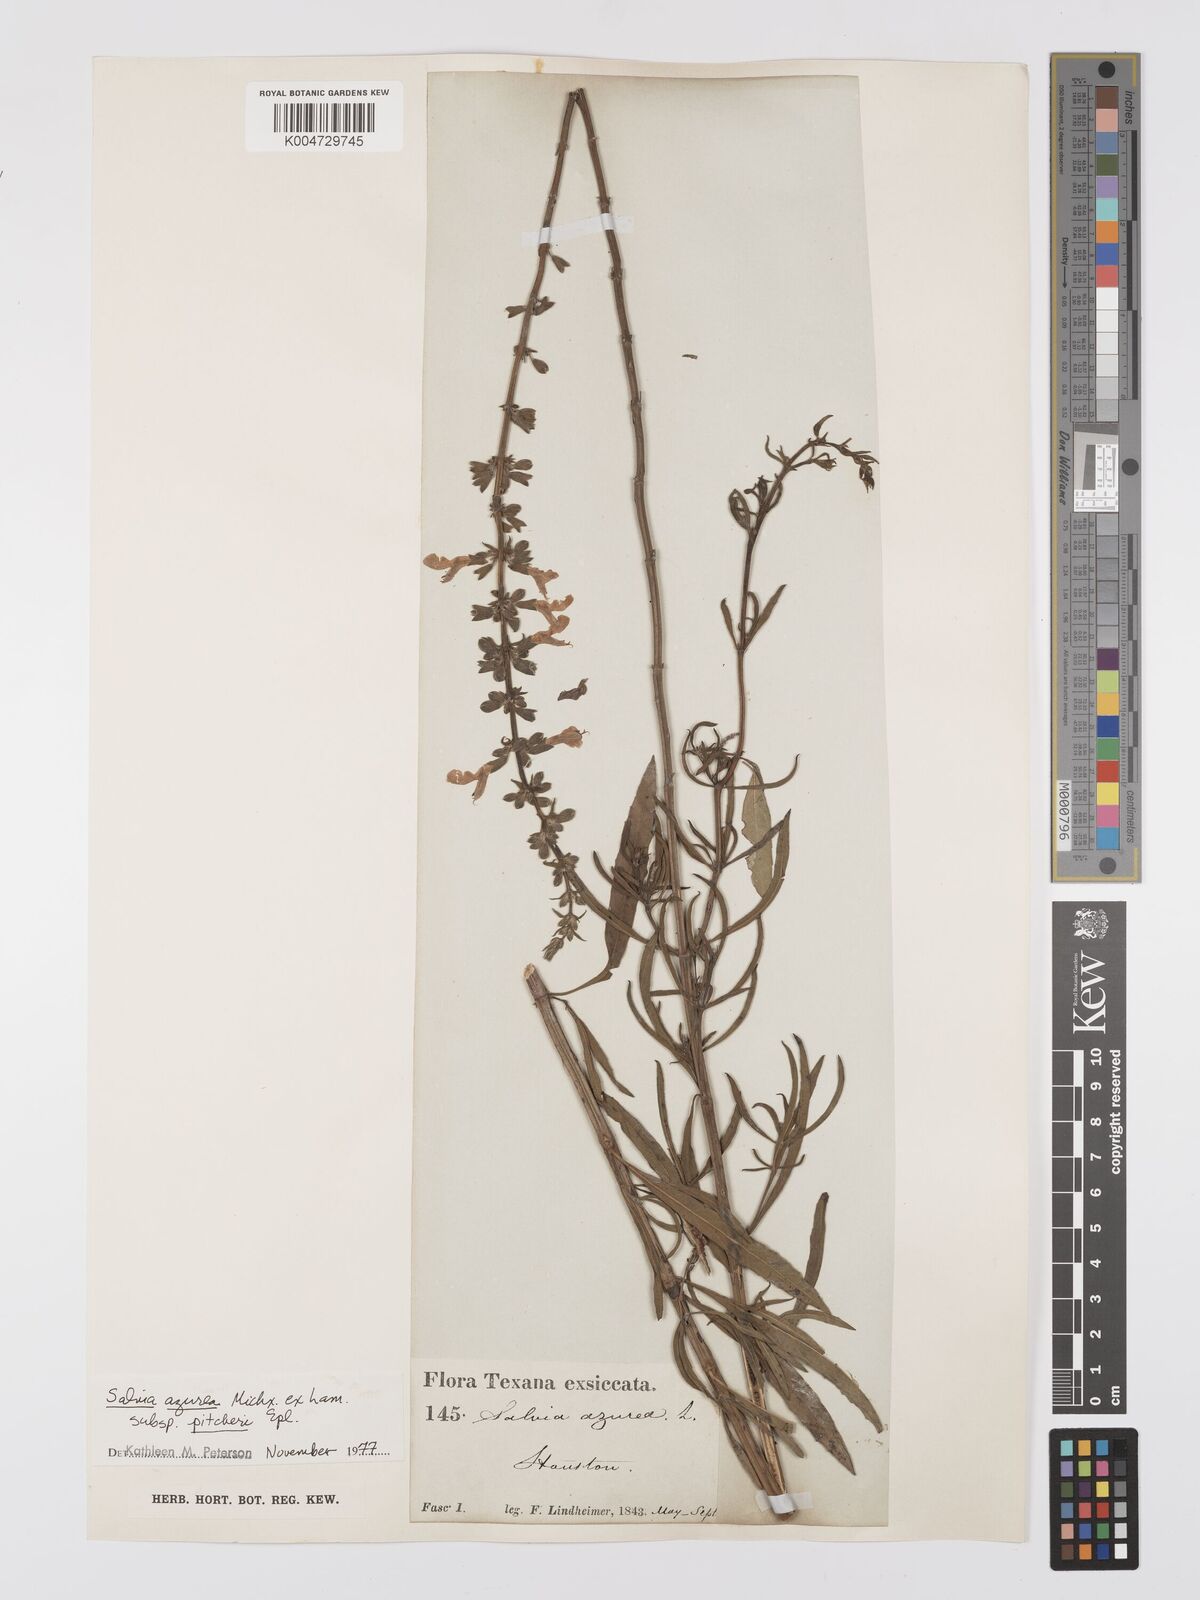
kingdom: Plantae
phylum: Tracheophyta
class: Magnoliopsida
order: Lamiales
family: Lamiaceae
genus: Salvia
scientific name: Salvia azurea
